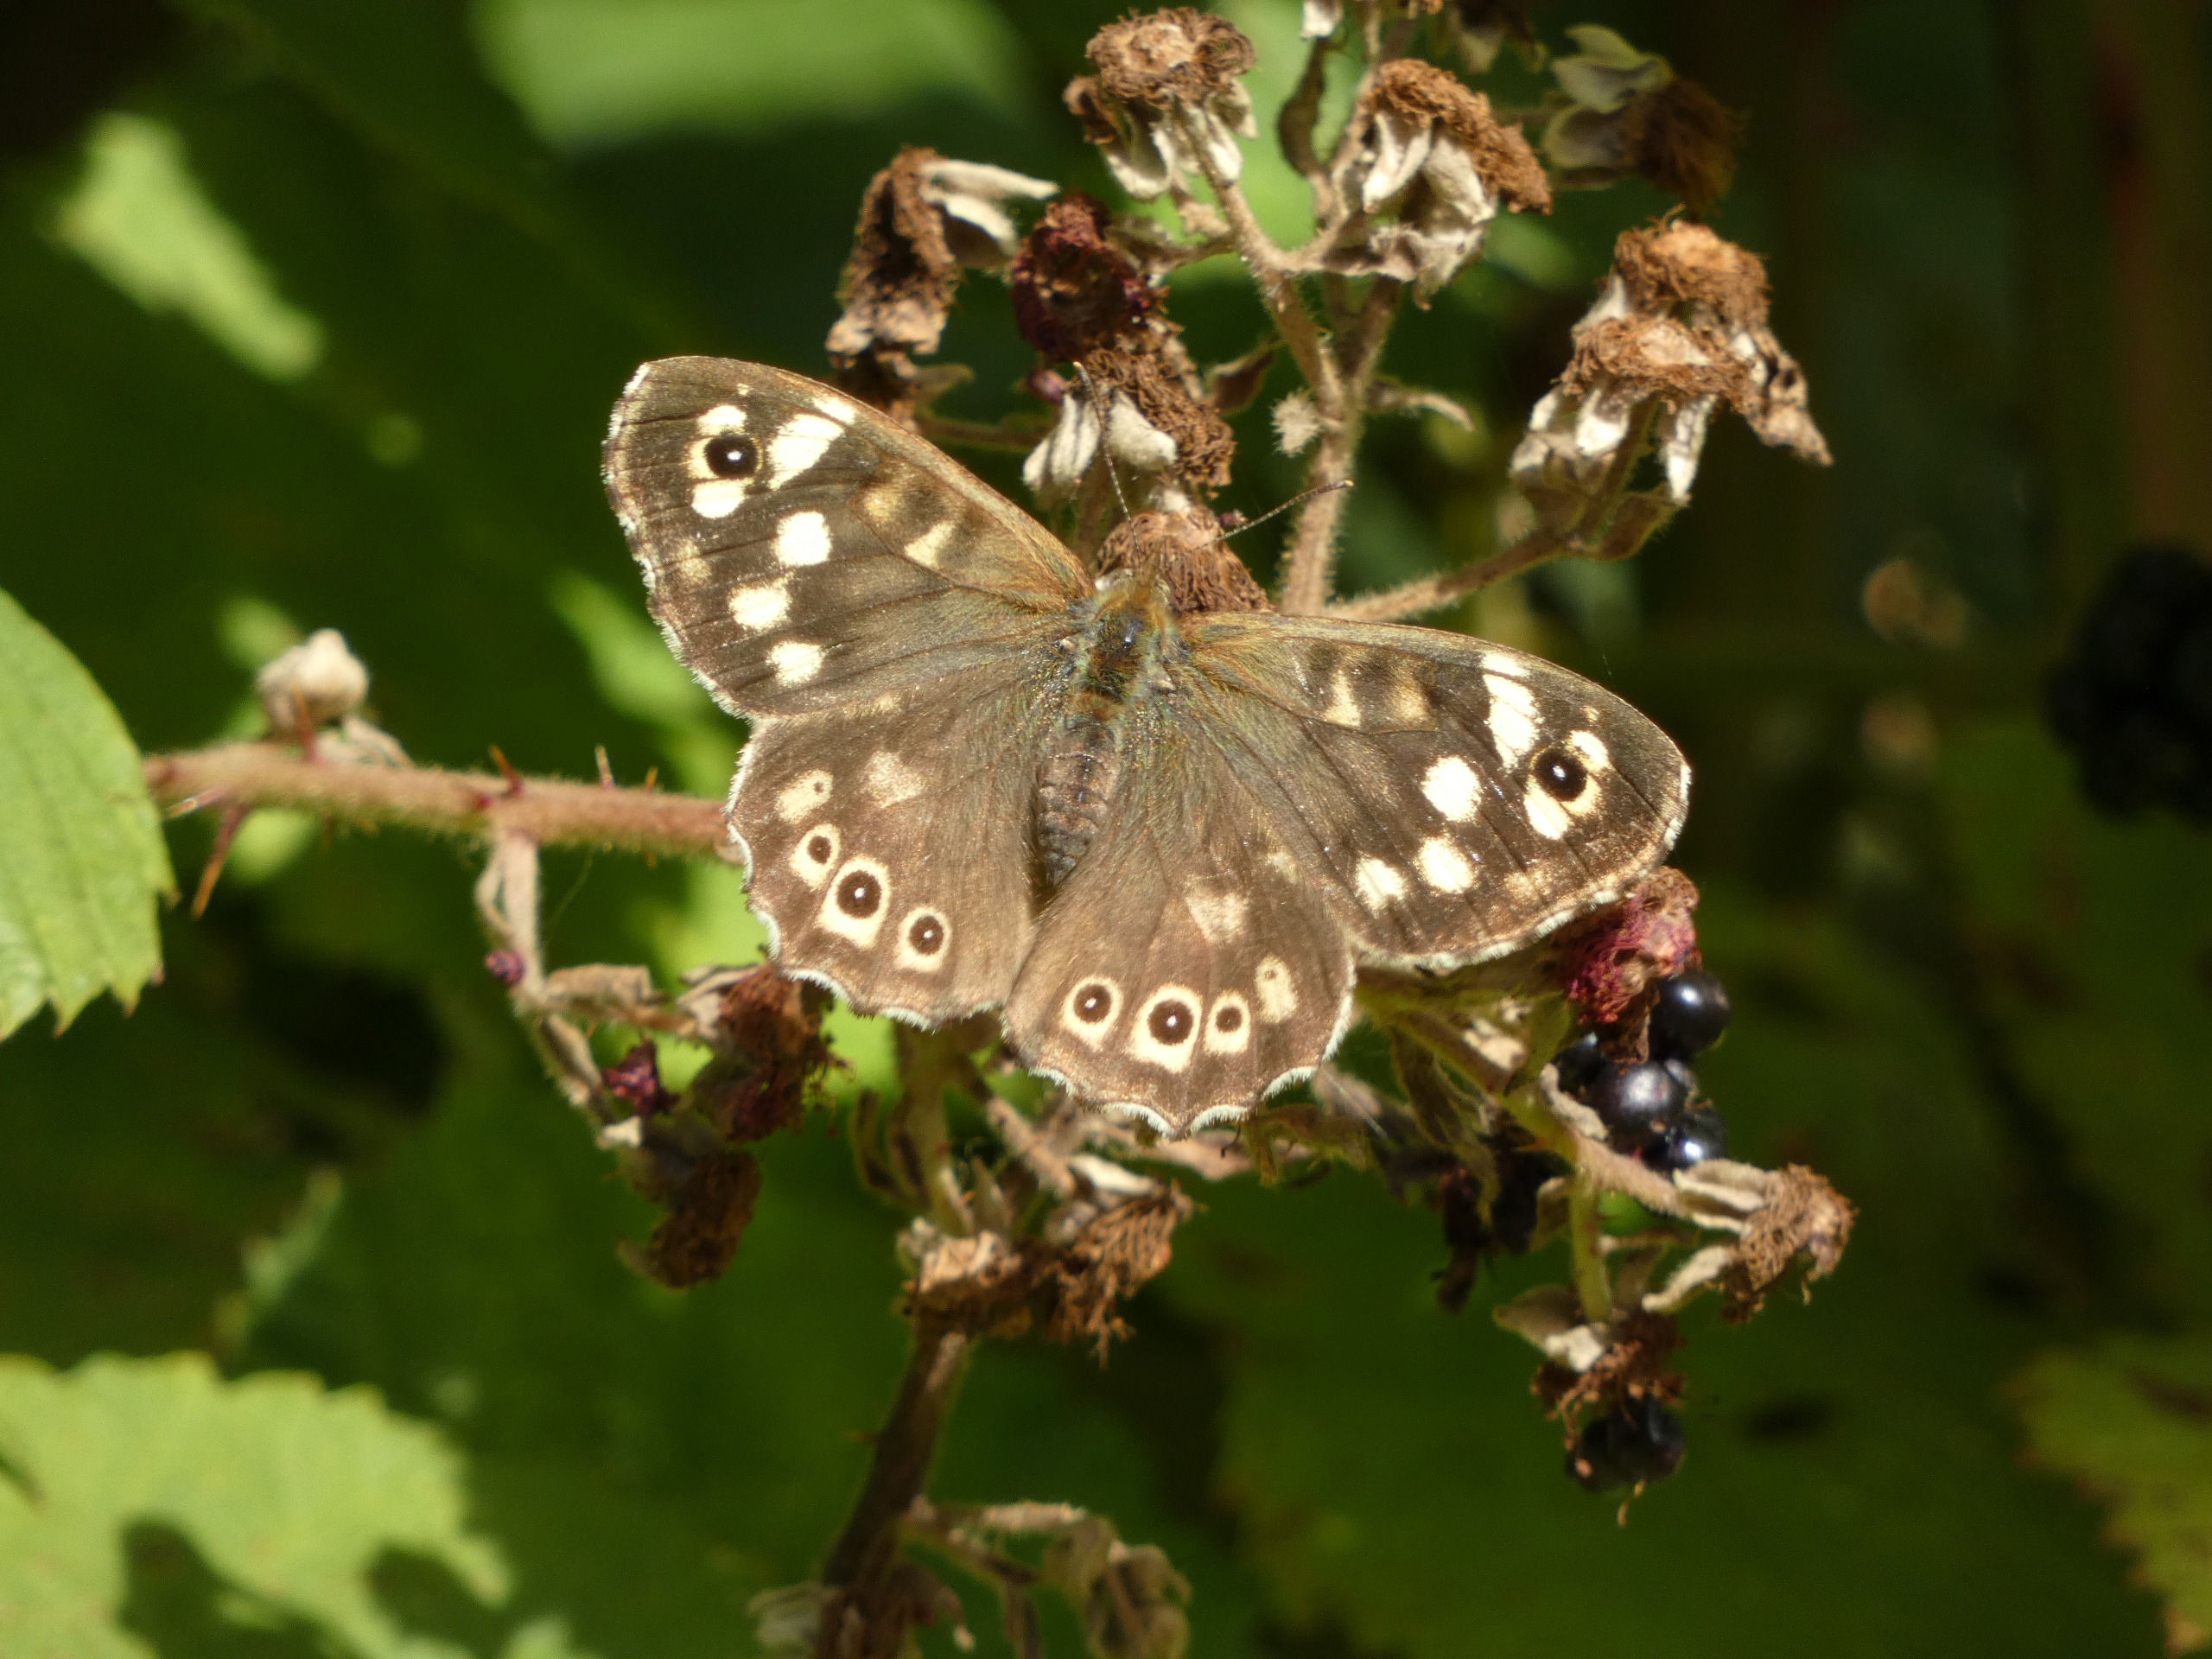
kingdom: Animalia
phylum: Arthropoda
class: Insecta
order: Lepidoptera
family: Nymphalidae
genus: Pararge
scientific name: Pararge aegeria
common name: Skovrandøje
